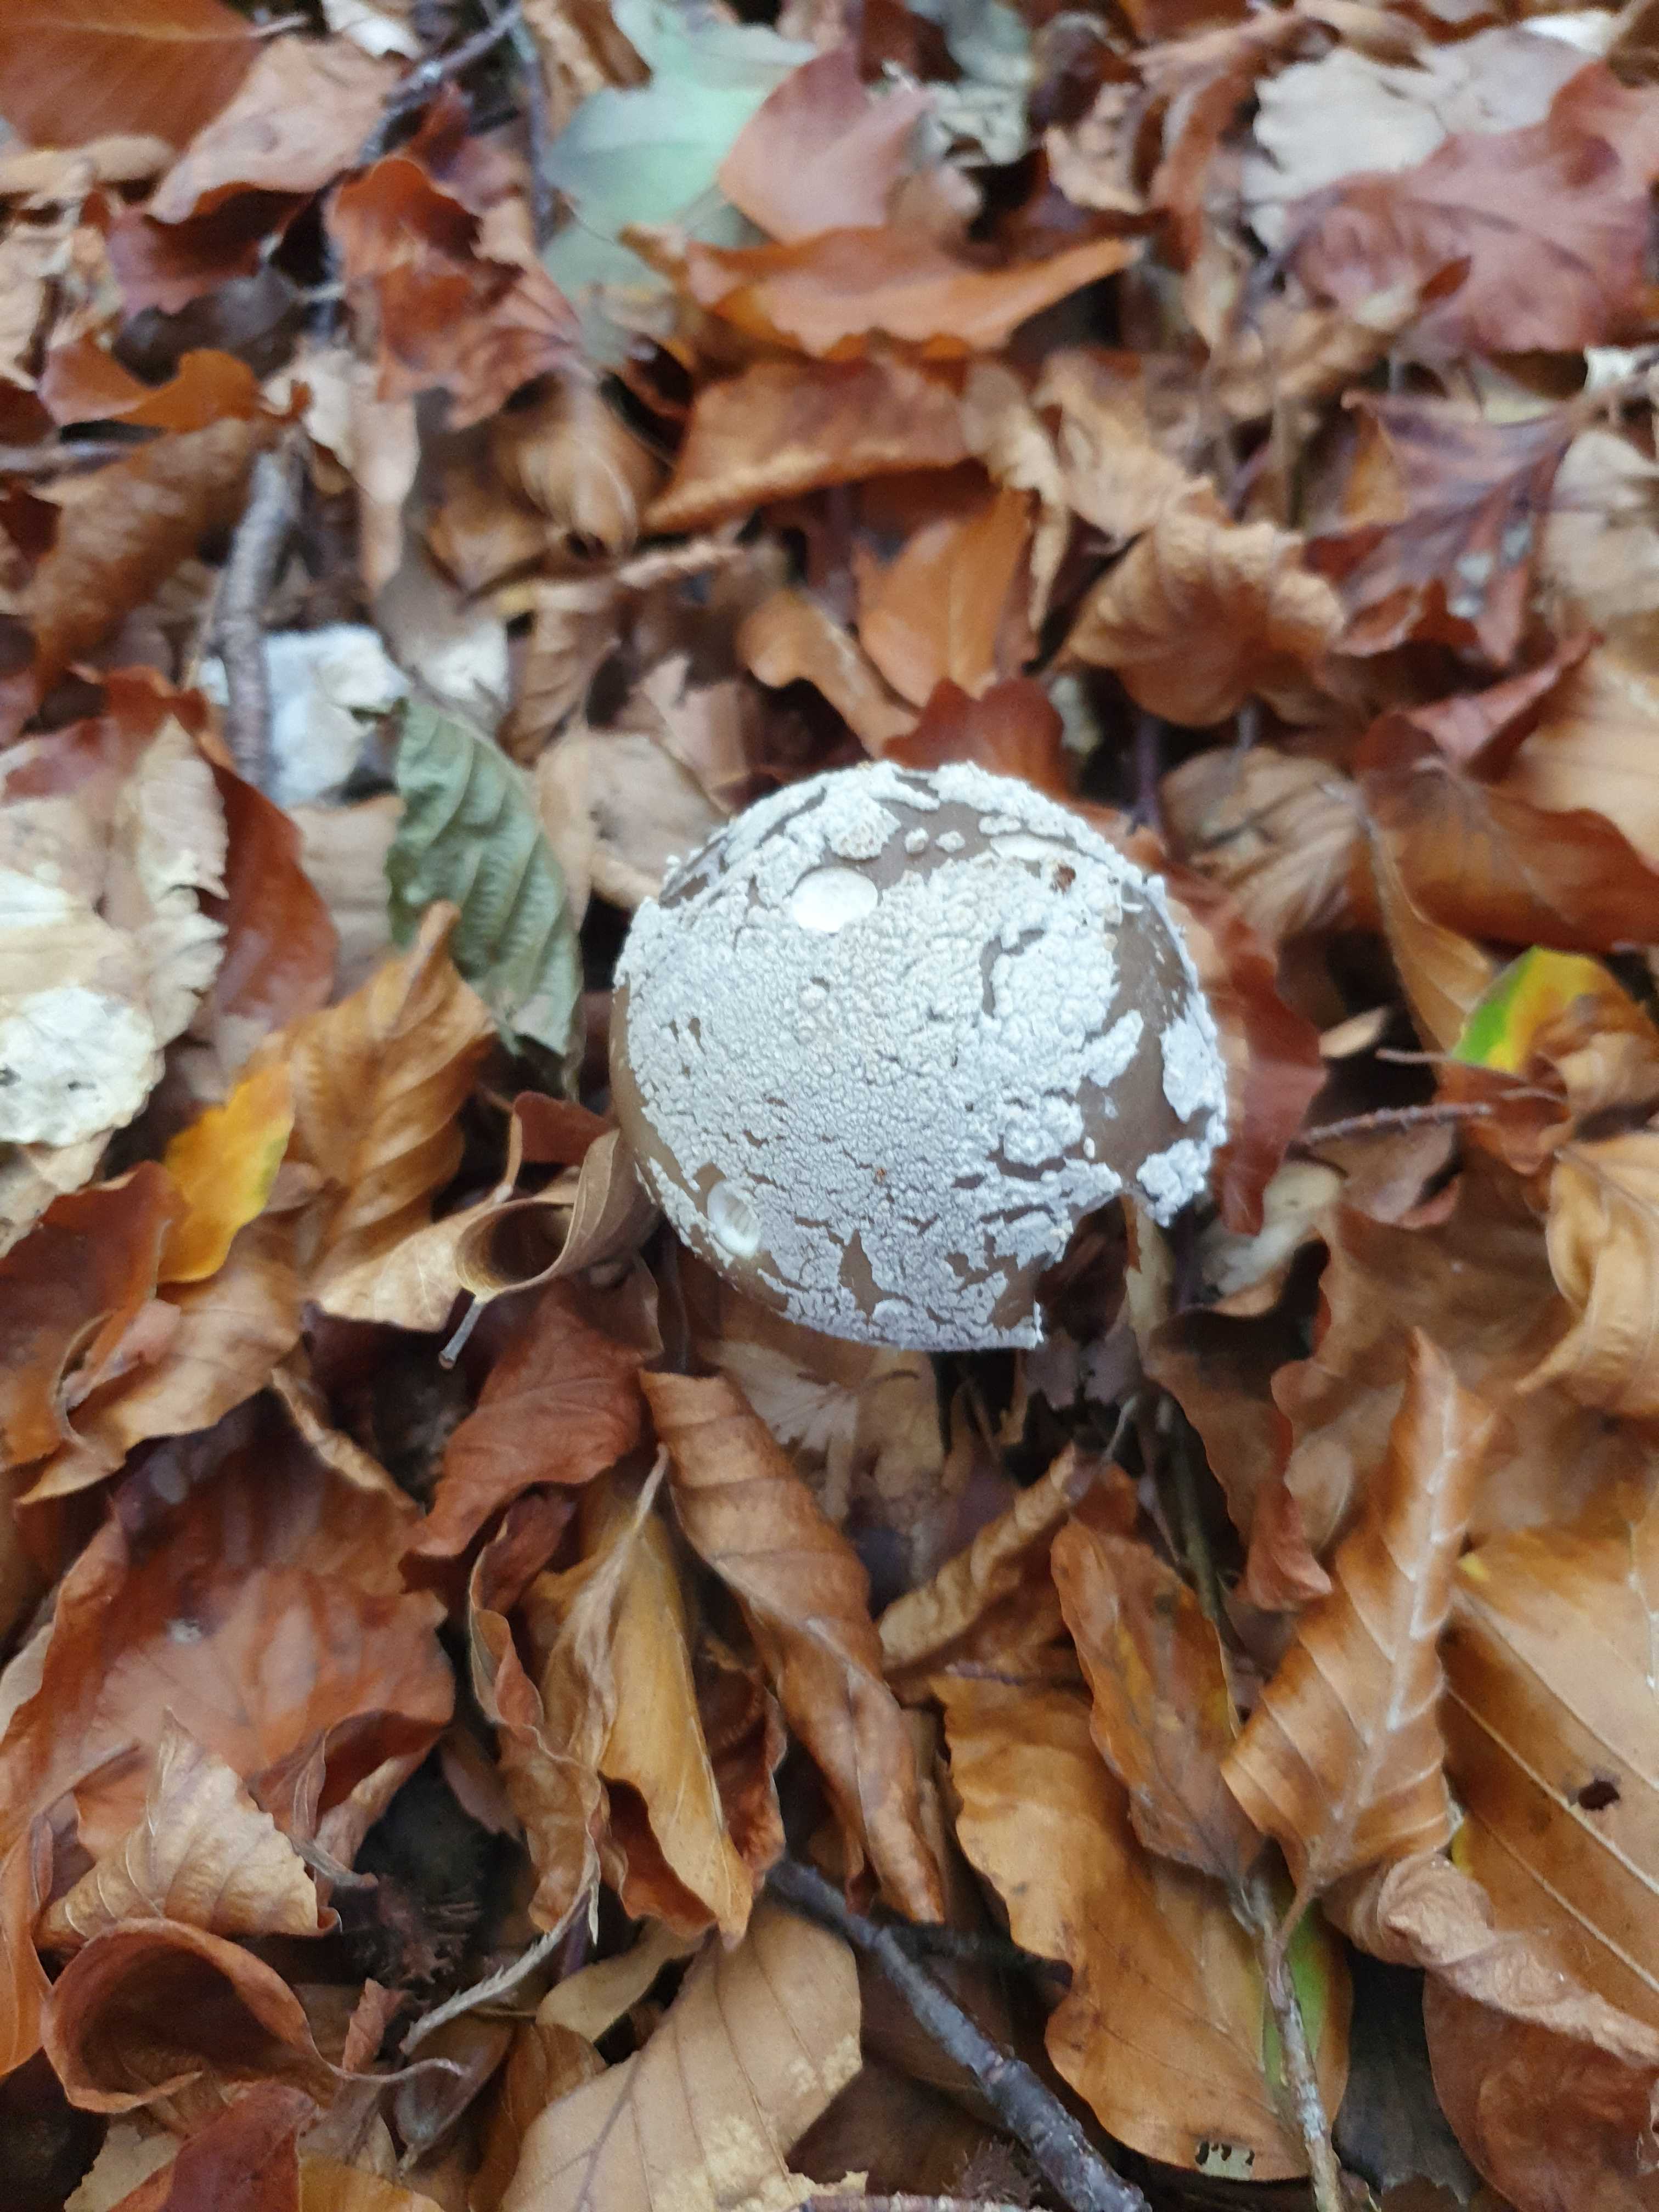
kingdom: Fungi
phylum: Basidiomycota
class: Agaricomycetes
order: Agaricales
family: Amanitaceae
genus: Amanita
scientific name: Amanita
